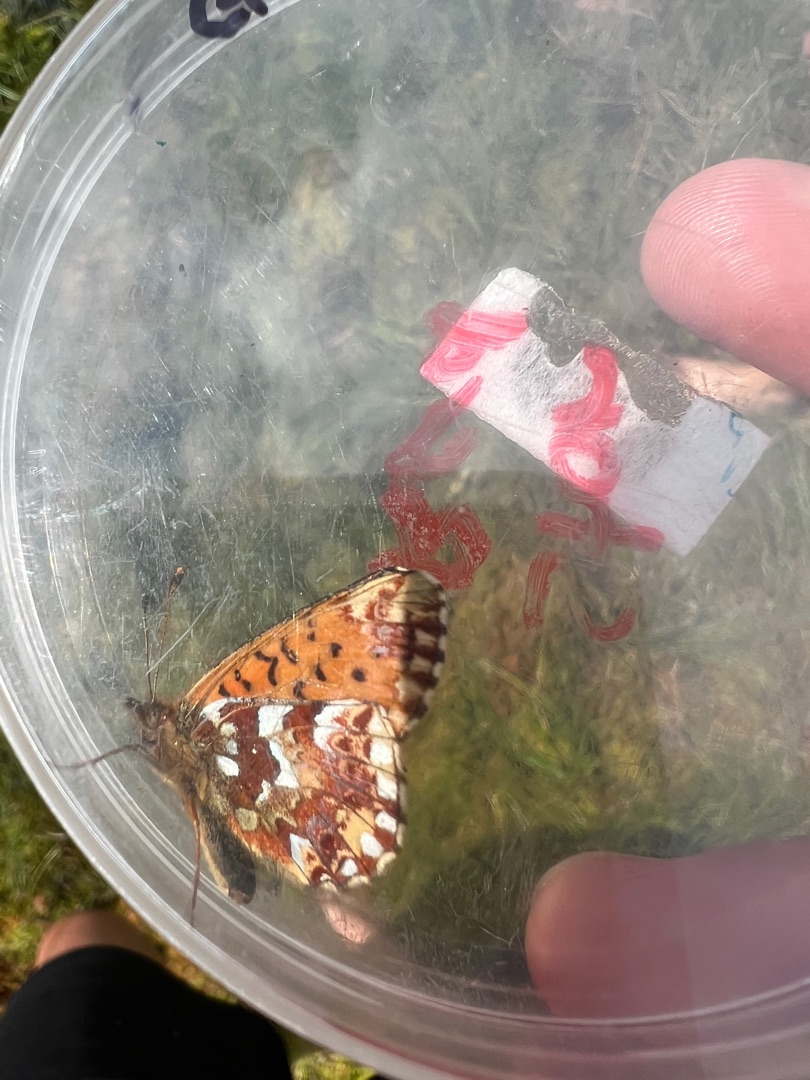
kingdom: Animalia
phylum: Arthropoda
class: Insecta
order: Lepidoptera
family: Nymphalidae
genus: Boloria
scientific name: Boloria aquilonaris
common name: Moseperlemorsommerfugl
